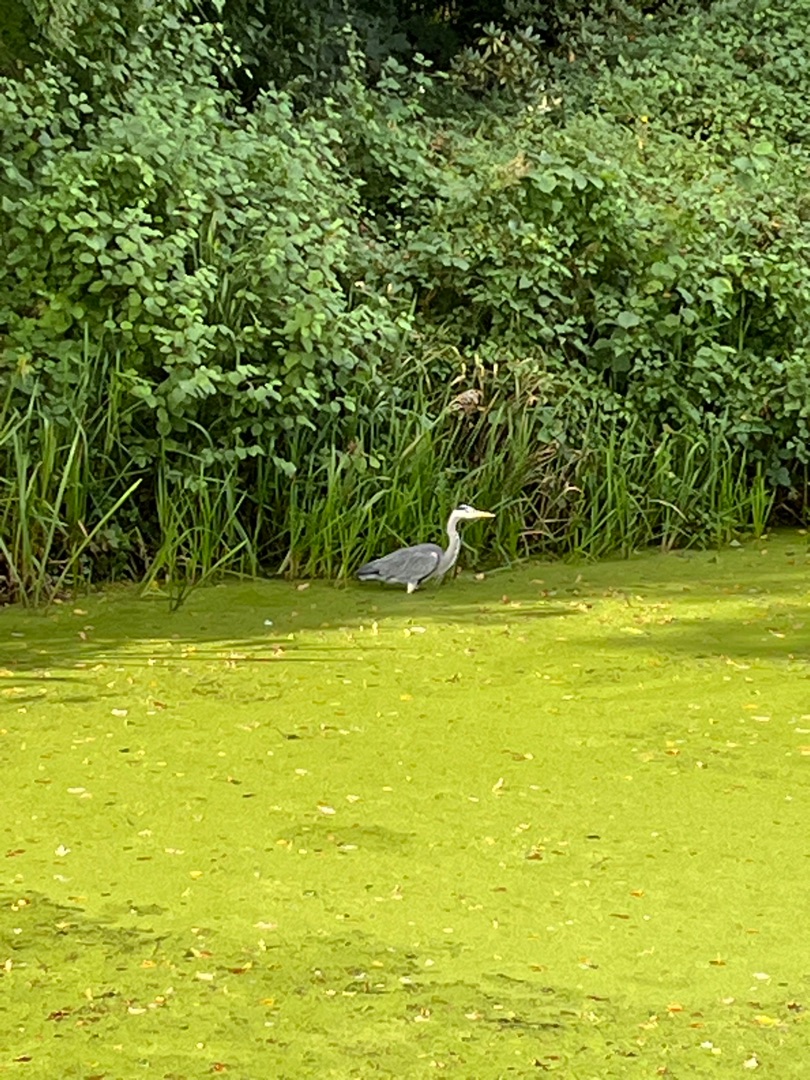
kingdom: Animalia
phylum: Chordata
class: Aves
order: Pelecaniformes
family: Ardeidae
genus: Ardea
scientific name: Ardea cinerea
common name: Fiskehejre
